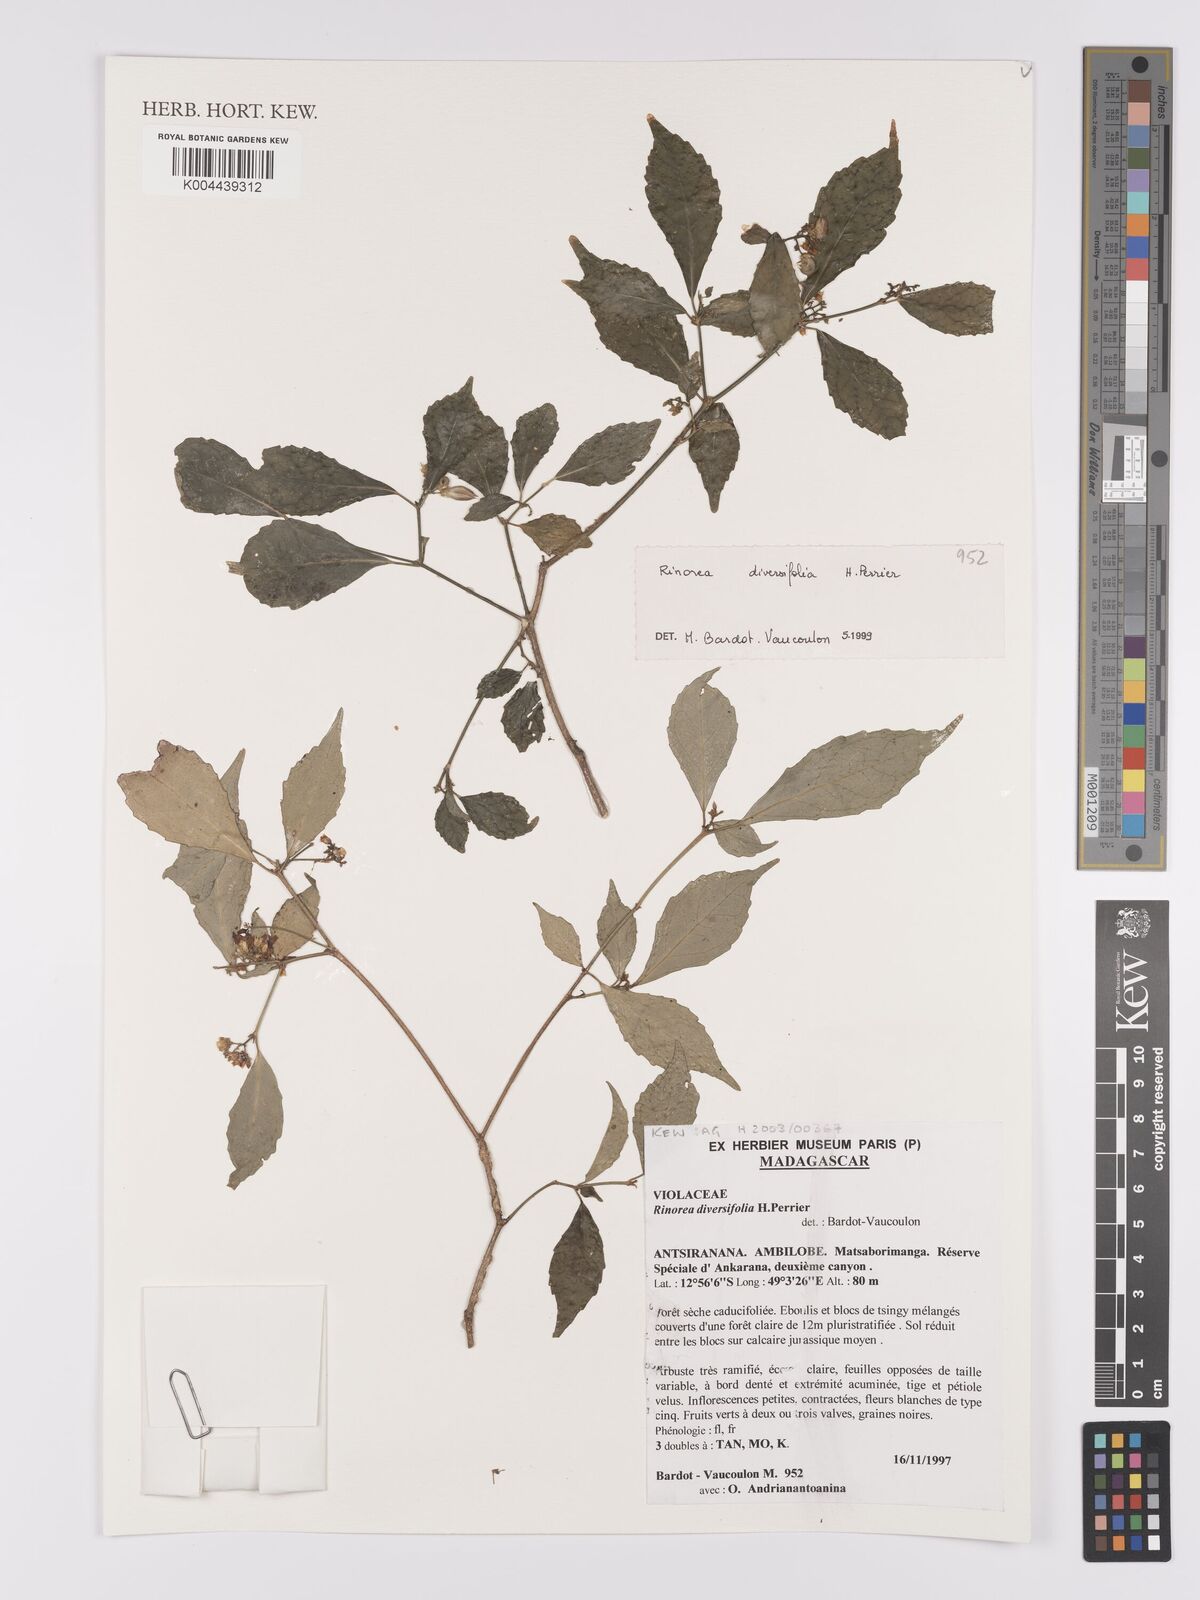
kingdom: Plantae
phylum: Tracheophyta
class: Magnoliopsida
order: Malpighiales
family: Violaceae
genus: Rinorea
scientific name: Rinorea diversifolia
